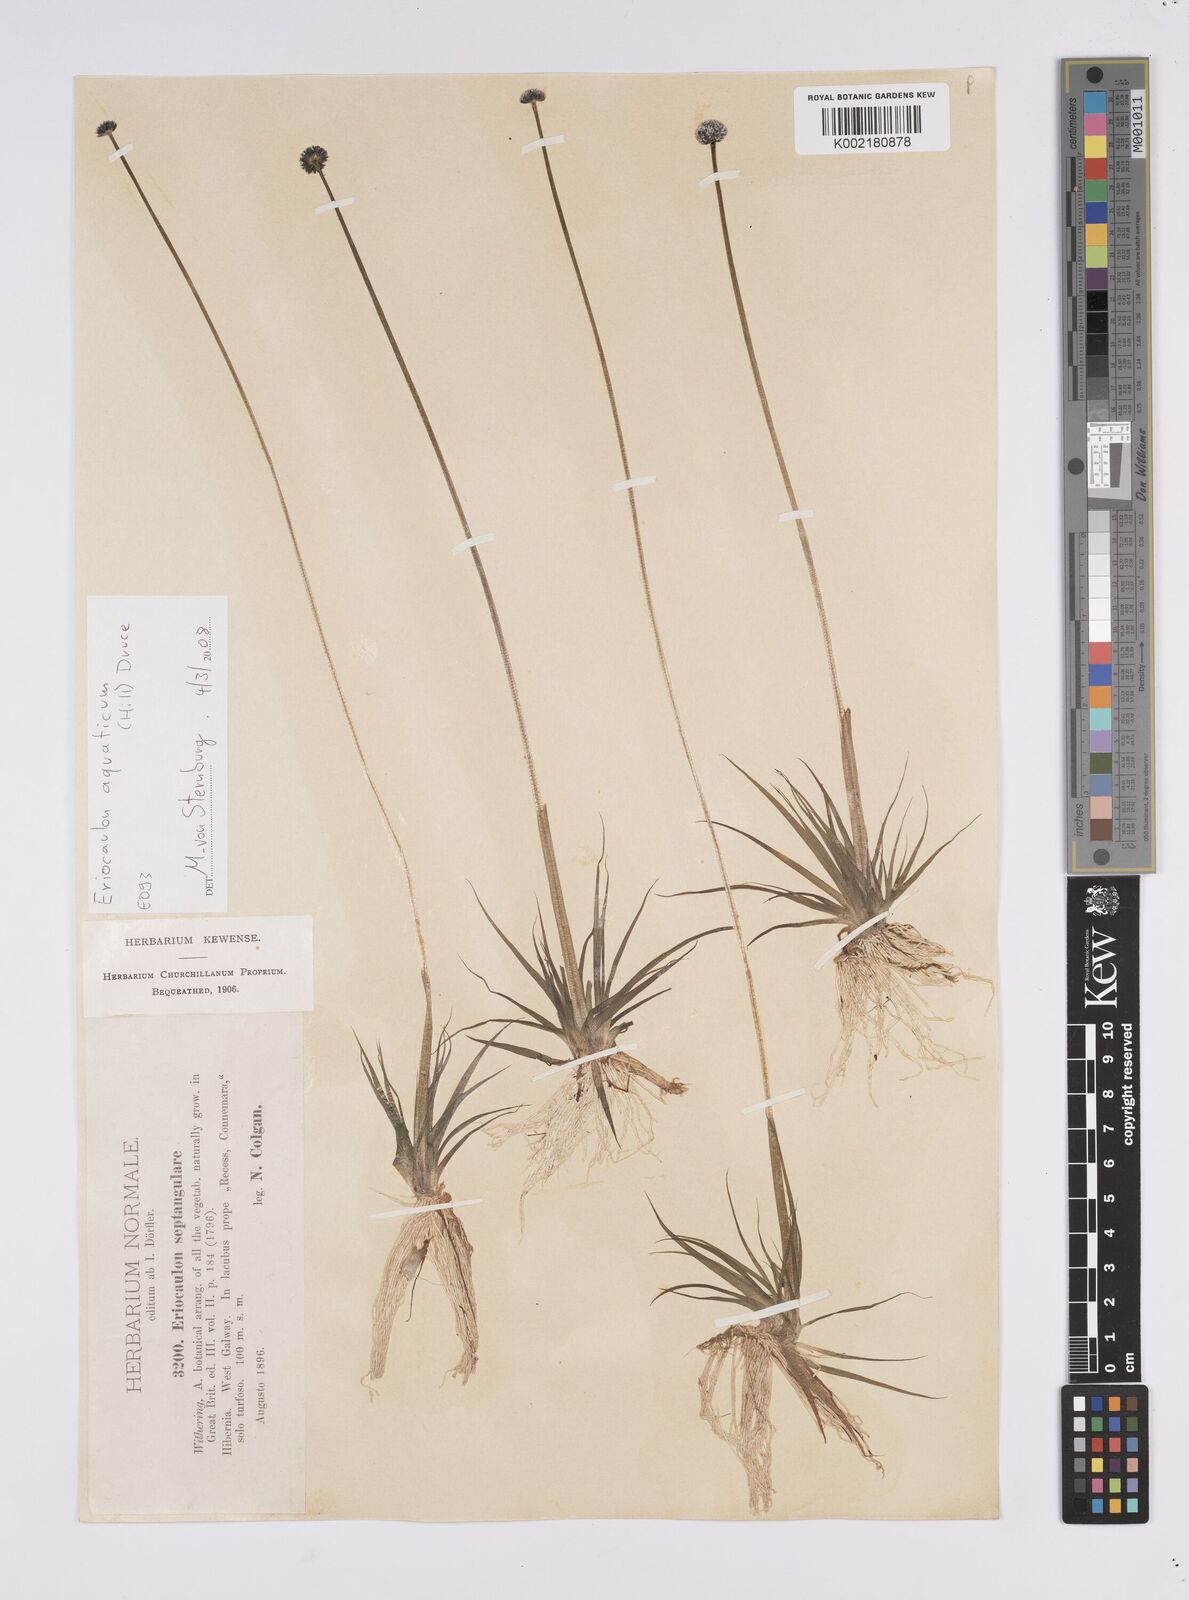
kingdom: Plantae
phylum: Tracheophyta
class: Liliopsida
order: Poales
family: Eriocaulaceae
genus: Eriocaulon
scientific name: Eriocaulon aquaticum
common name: Pipewort
